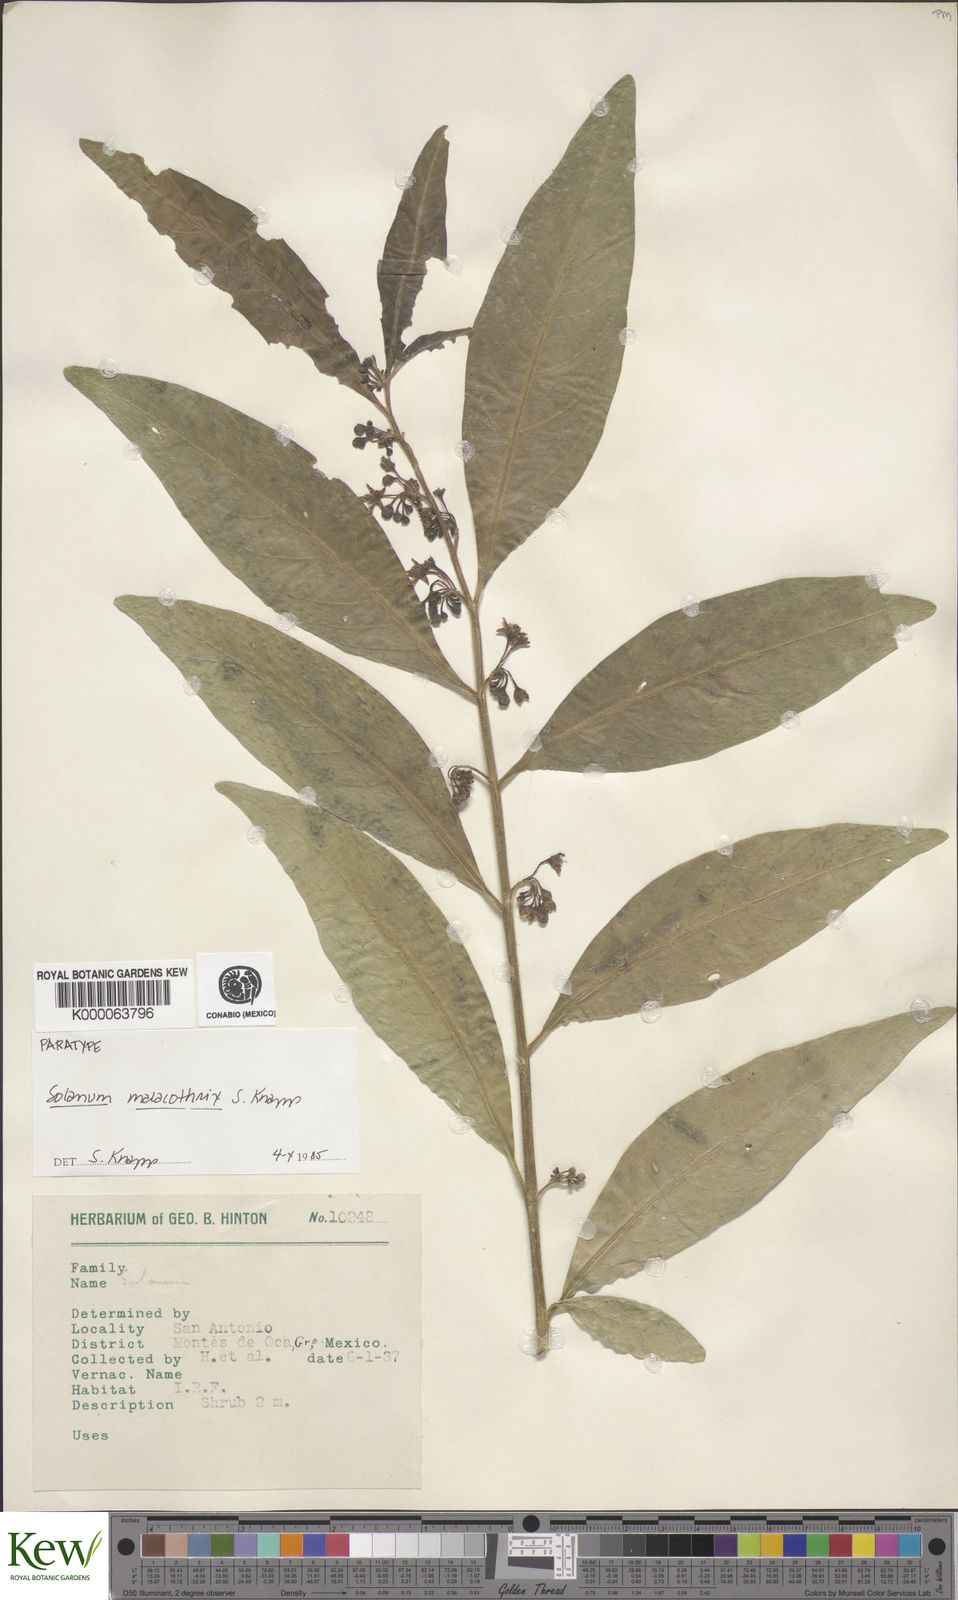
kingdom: Plantae
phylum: Tracheophyta
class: Magnoliopsida
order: Solanales
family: Solanaceae
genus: Solanum
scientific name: Solanum malacothrix
